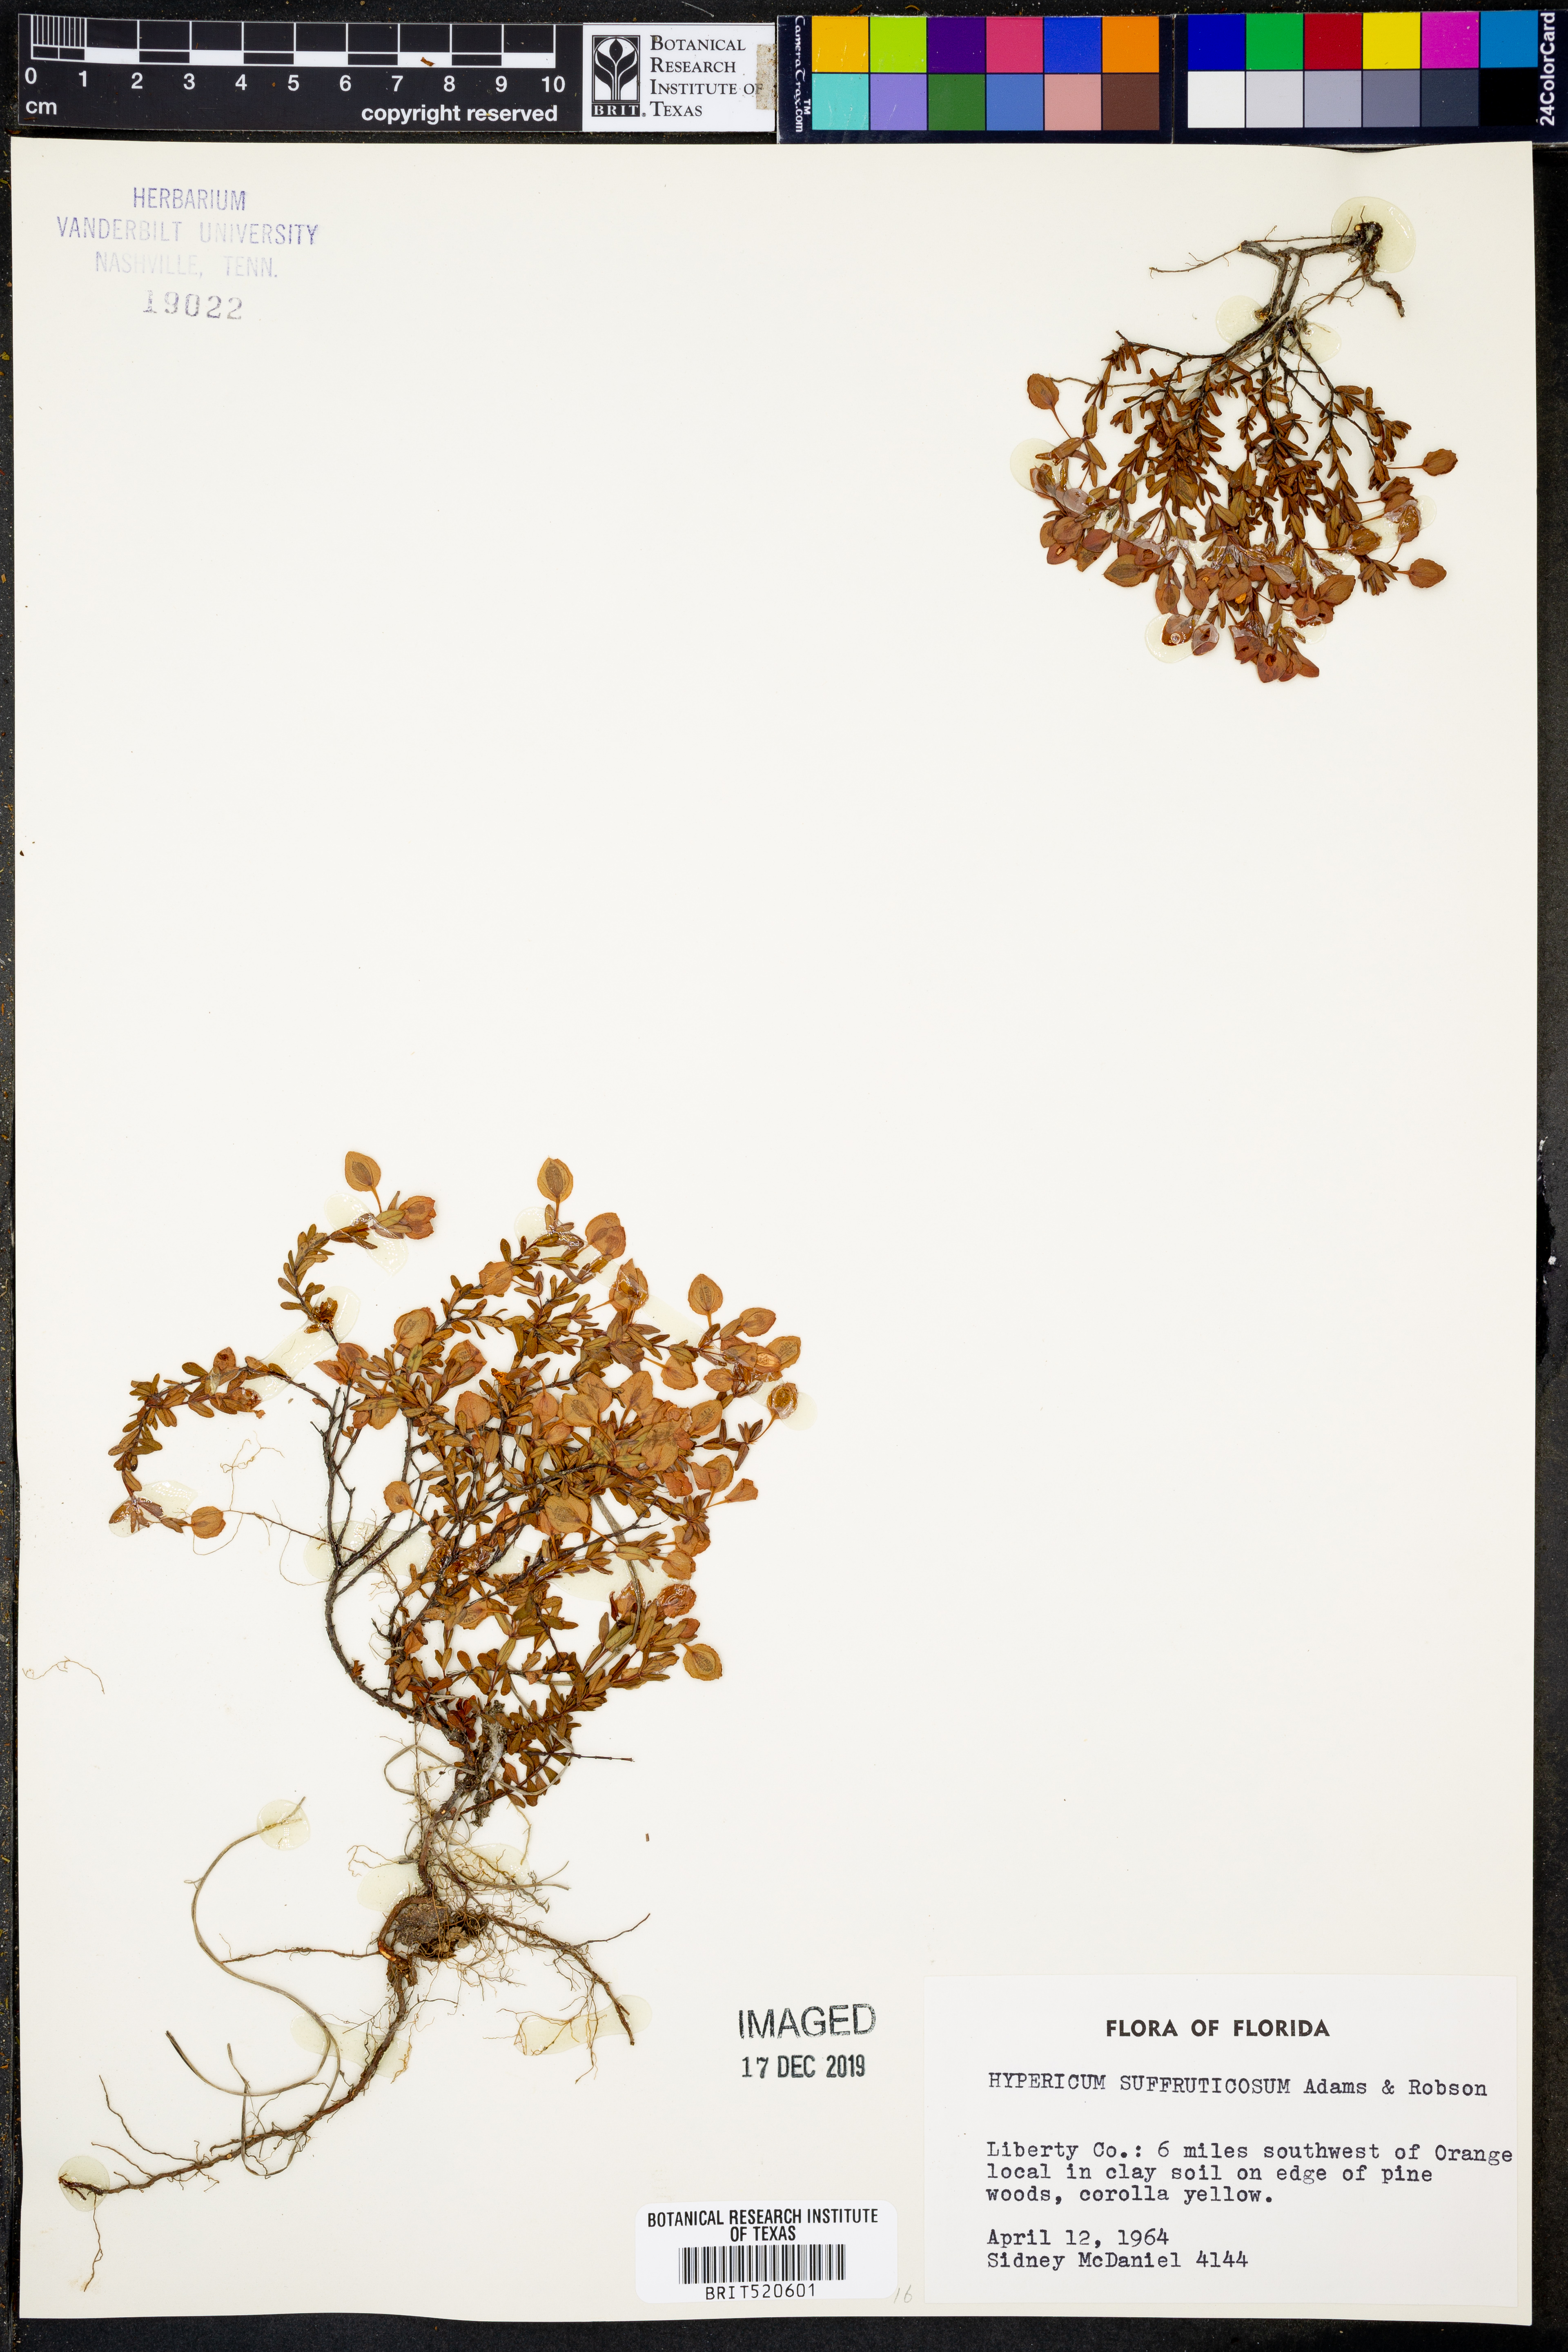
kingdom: Plantae
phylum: Tracheophyta
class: Magnoliopsida
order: Malpighiales
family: Hypericaceae
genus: Hypericum
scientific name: Hypericum suffruticosum
